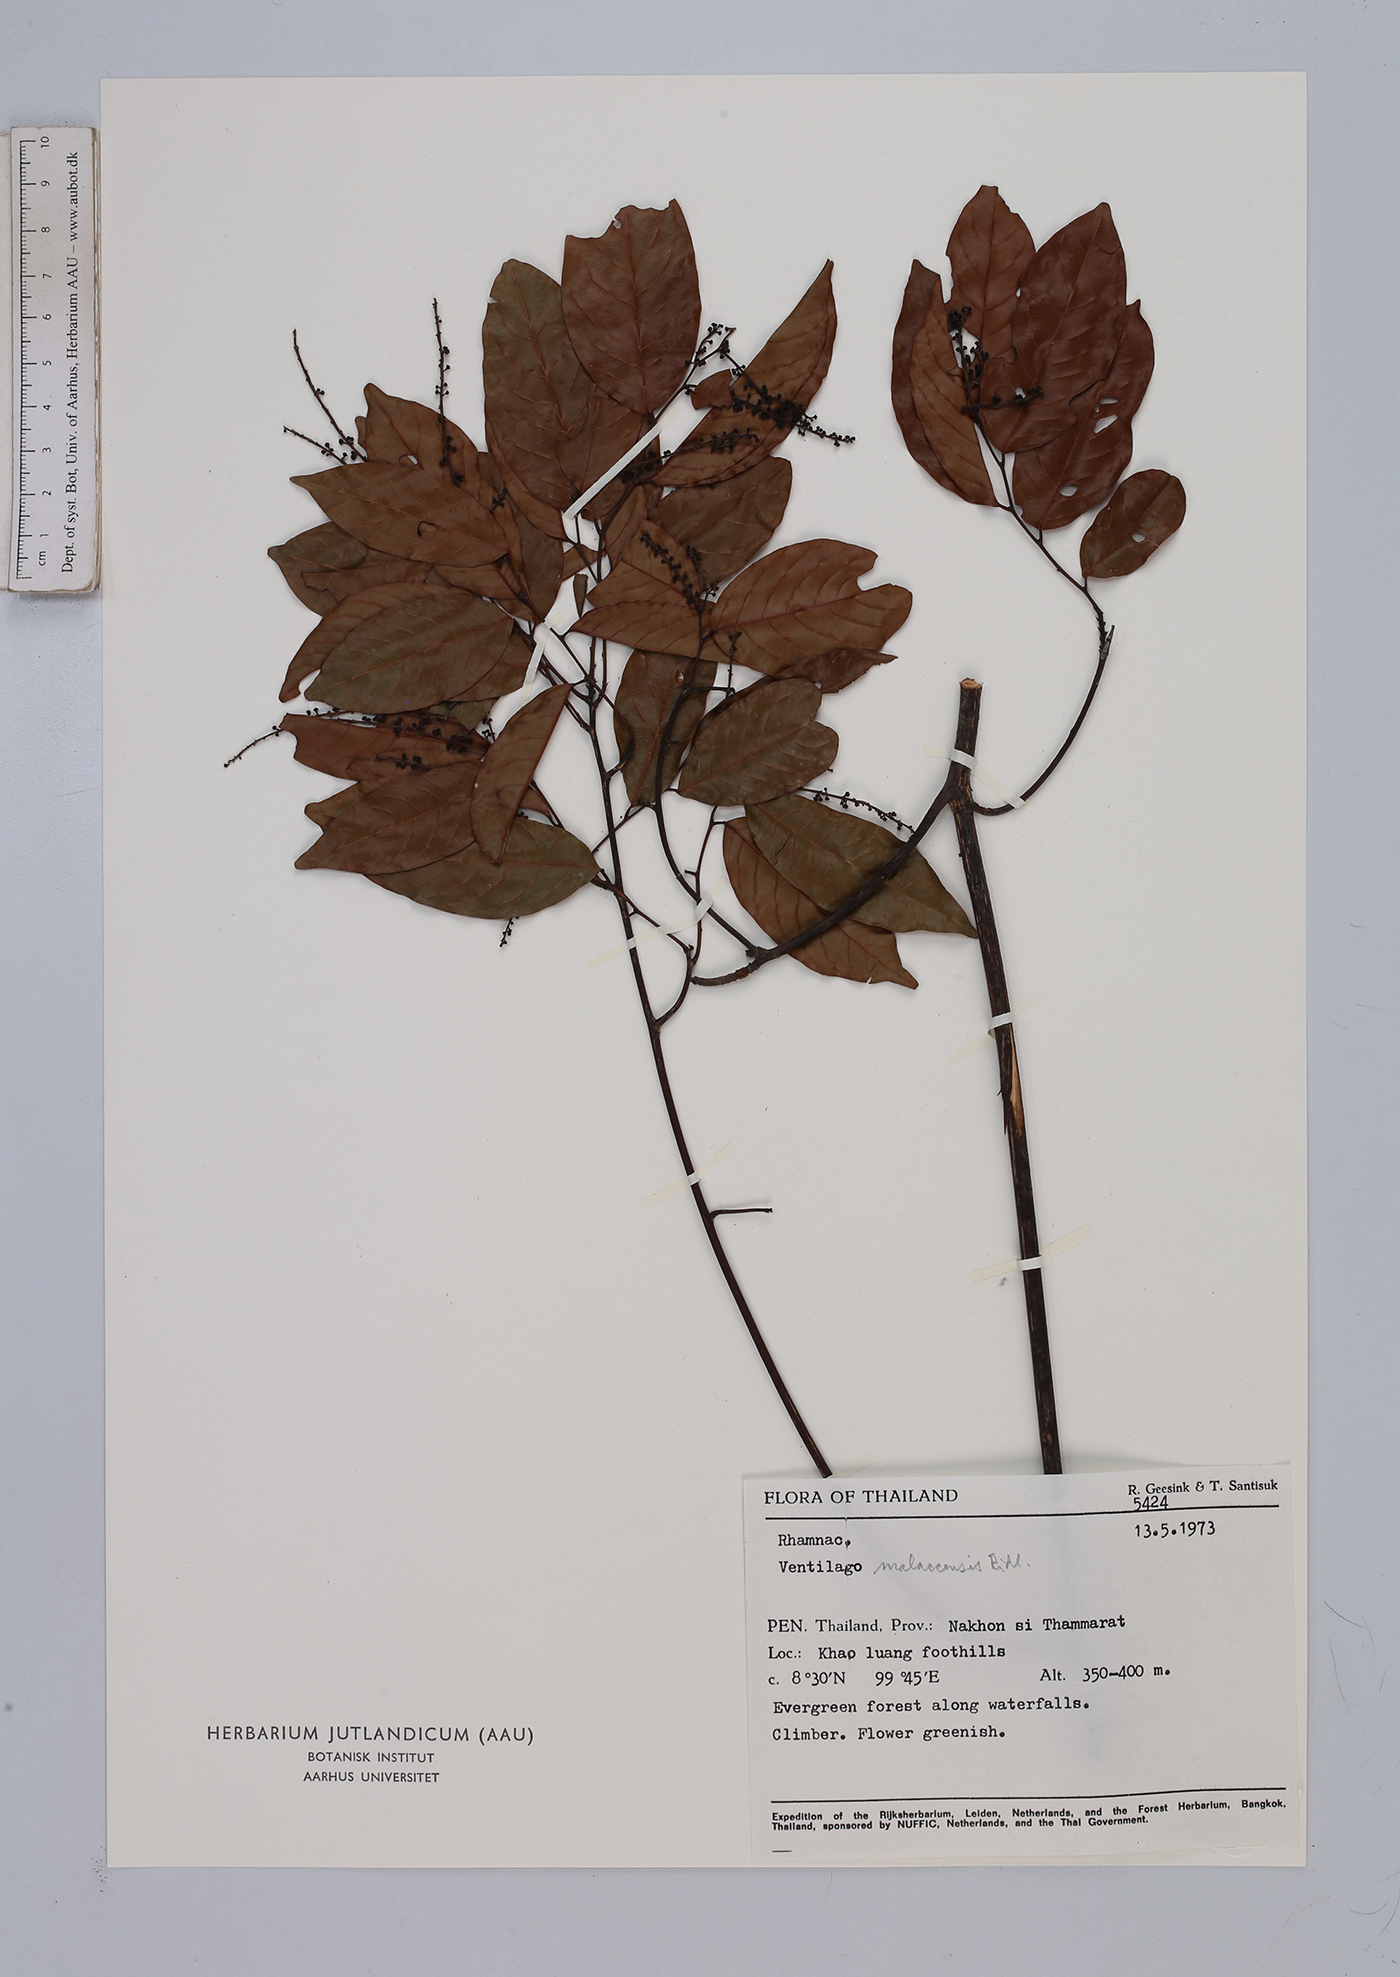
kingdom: Plantae
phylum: Tracheophyta
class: Magnoliopsida
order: Rosales
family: Rhamnaceae
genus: Ventilago
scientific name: Ventilago malaccensis
